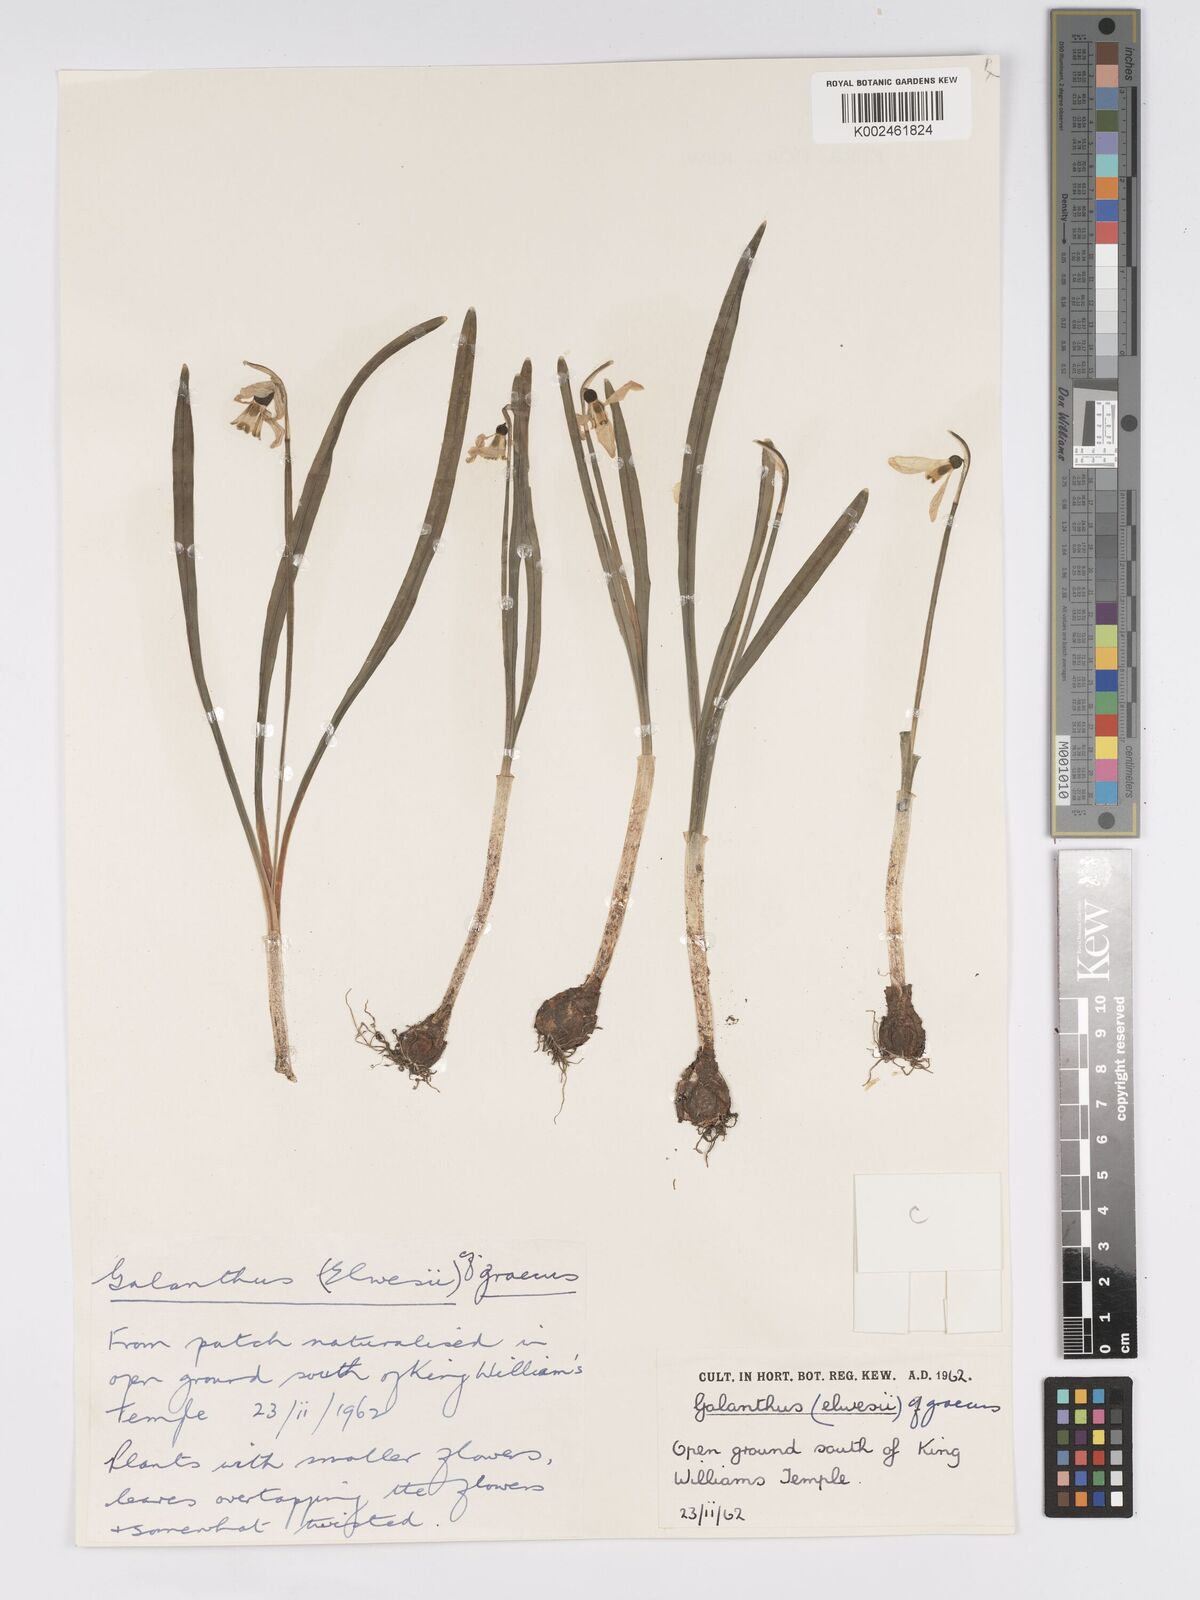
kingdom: Plantae
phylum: Tracheophyta
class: Liliopsida
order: Asparagales
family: Amaryllidaceae
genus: Galanthus
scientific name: Galanthus elwesii
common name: Greater snowdrop
